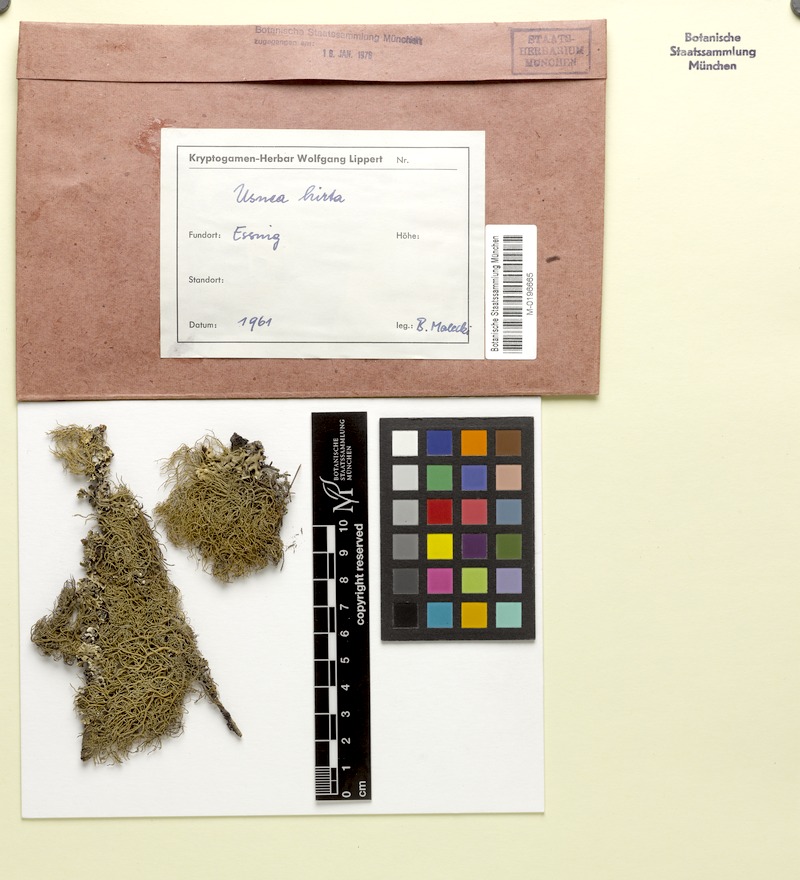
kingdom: Fungi
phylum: Ascomycota
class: Lecanoromycetes
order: Lecanorales
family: Parmeliaceae
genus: Usnea
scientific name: Usnea hirta
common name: Bristly beard lichen
